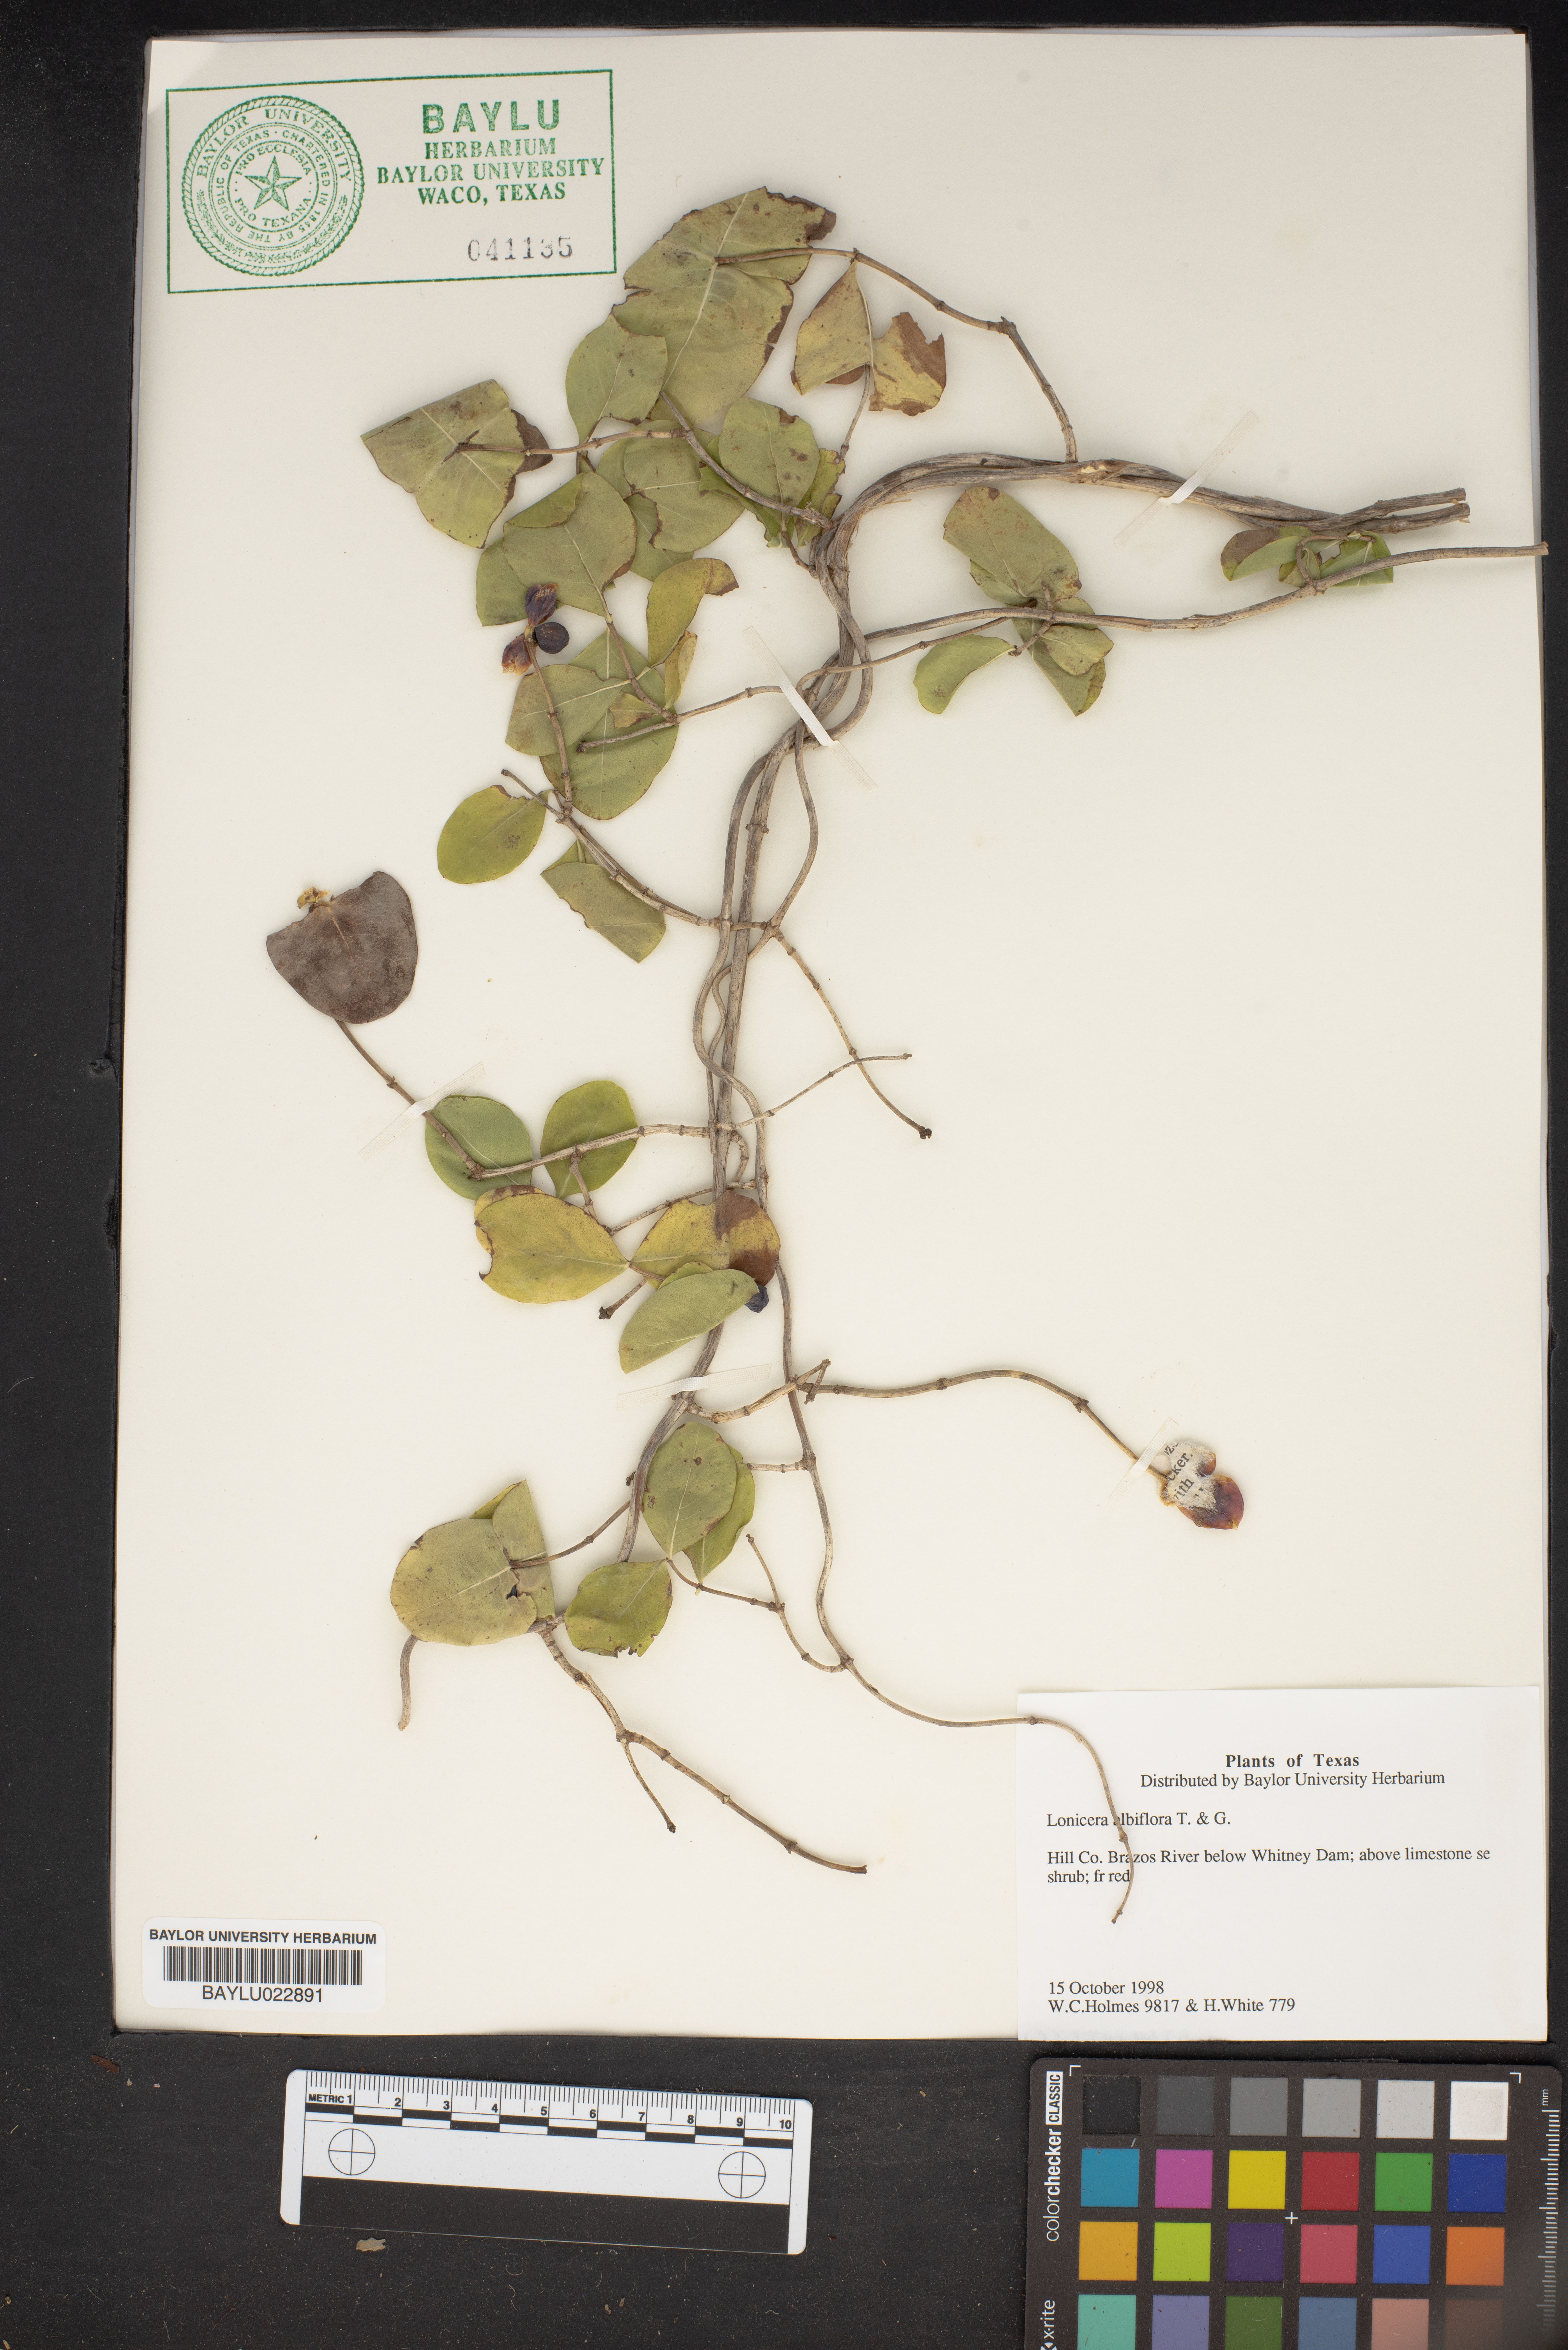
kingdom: Plantae
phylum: Tracheophyta
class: Magnoliopsida
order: Dipsacales
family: Caprifoliaceae
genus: Lonicera
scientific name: Lonicera albiflora
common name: White honeysuckle
